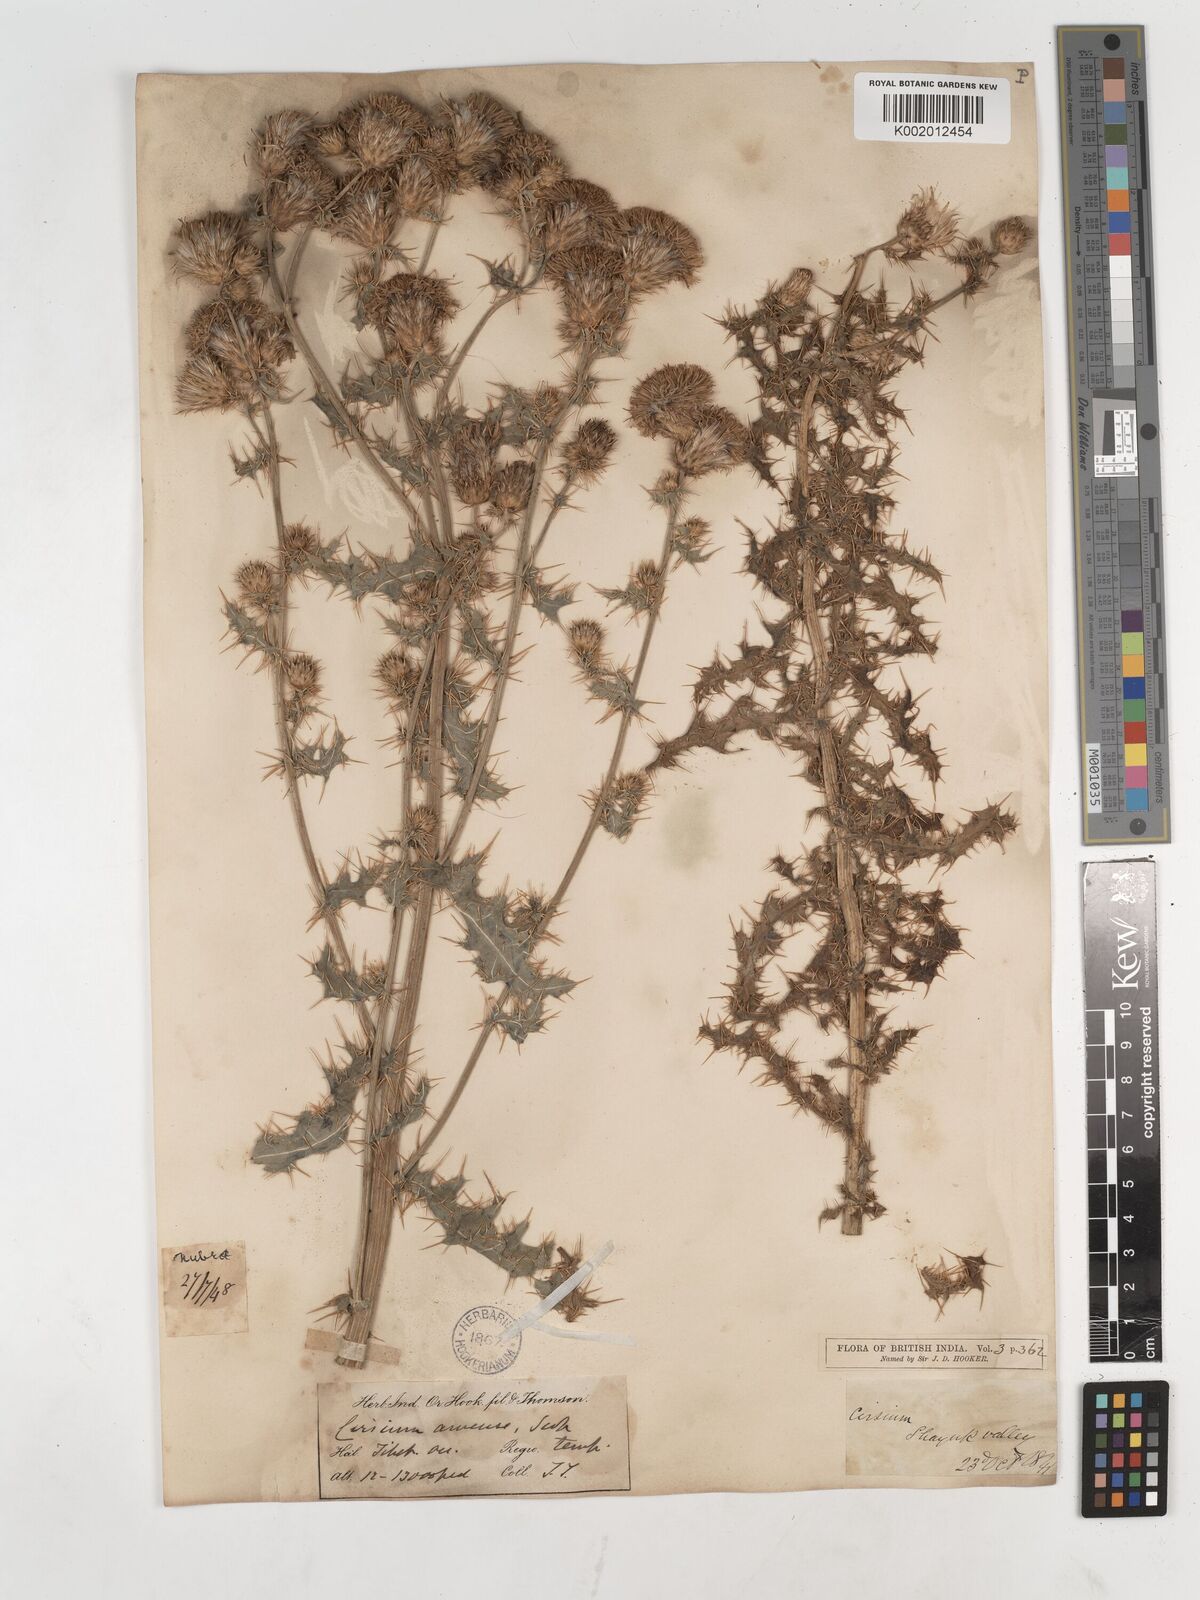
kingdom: Plantae
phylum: Tracheophyta
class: Magnoliopsida
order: Asterales
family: Asteraceae
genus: Cirsium
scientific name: Cirsium arvense
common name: Creeping thistle
